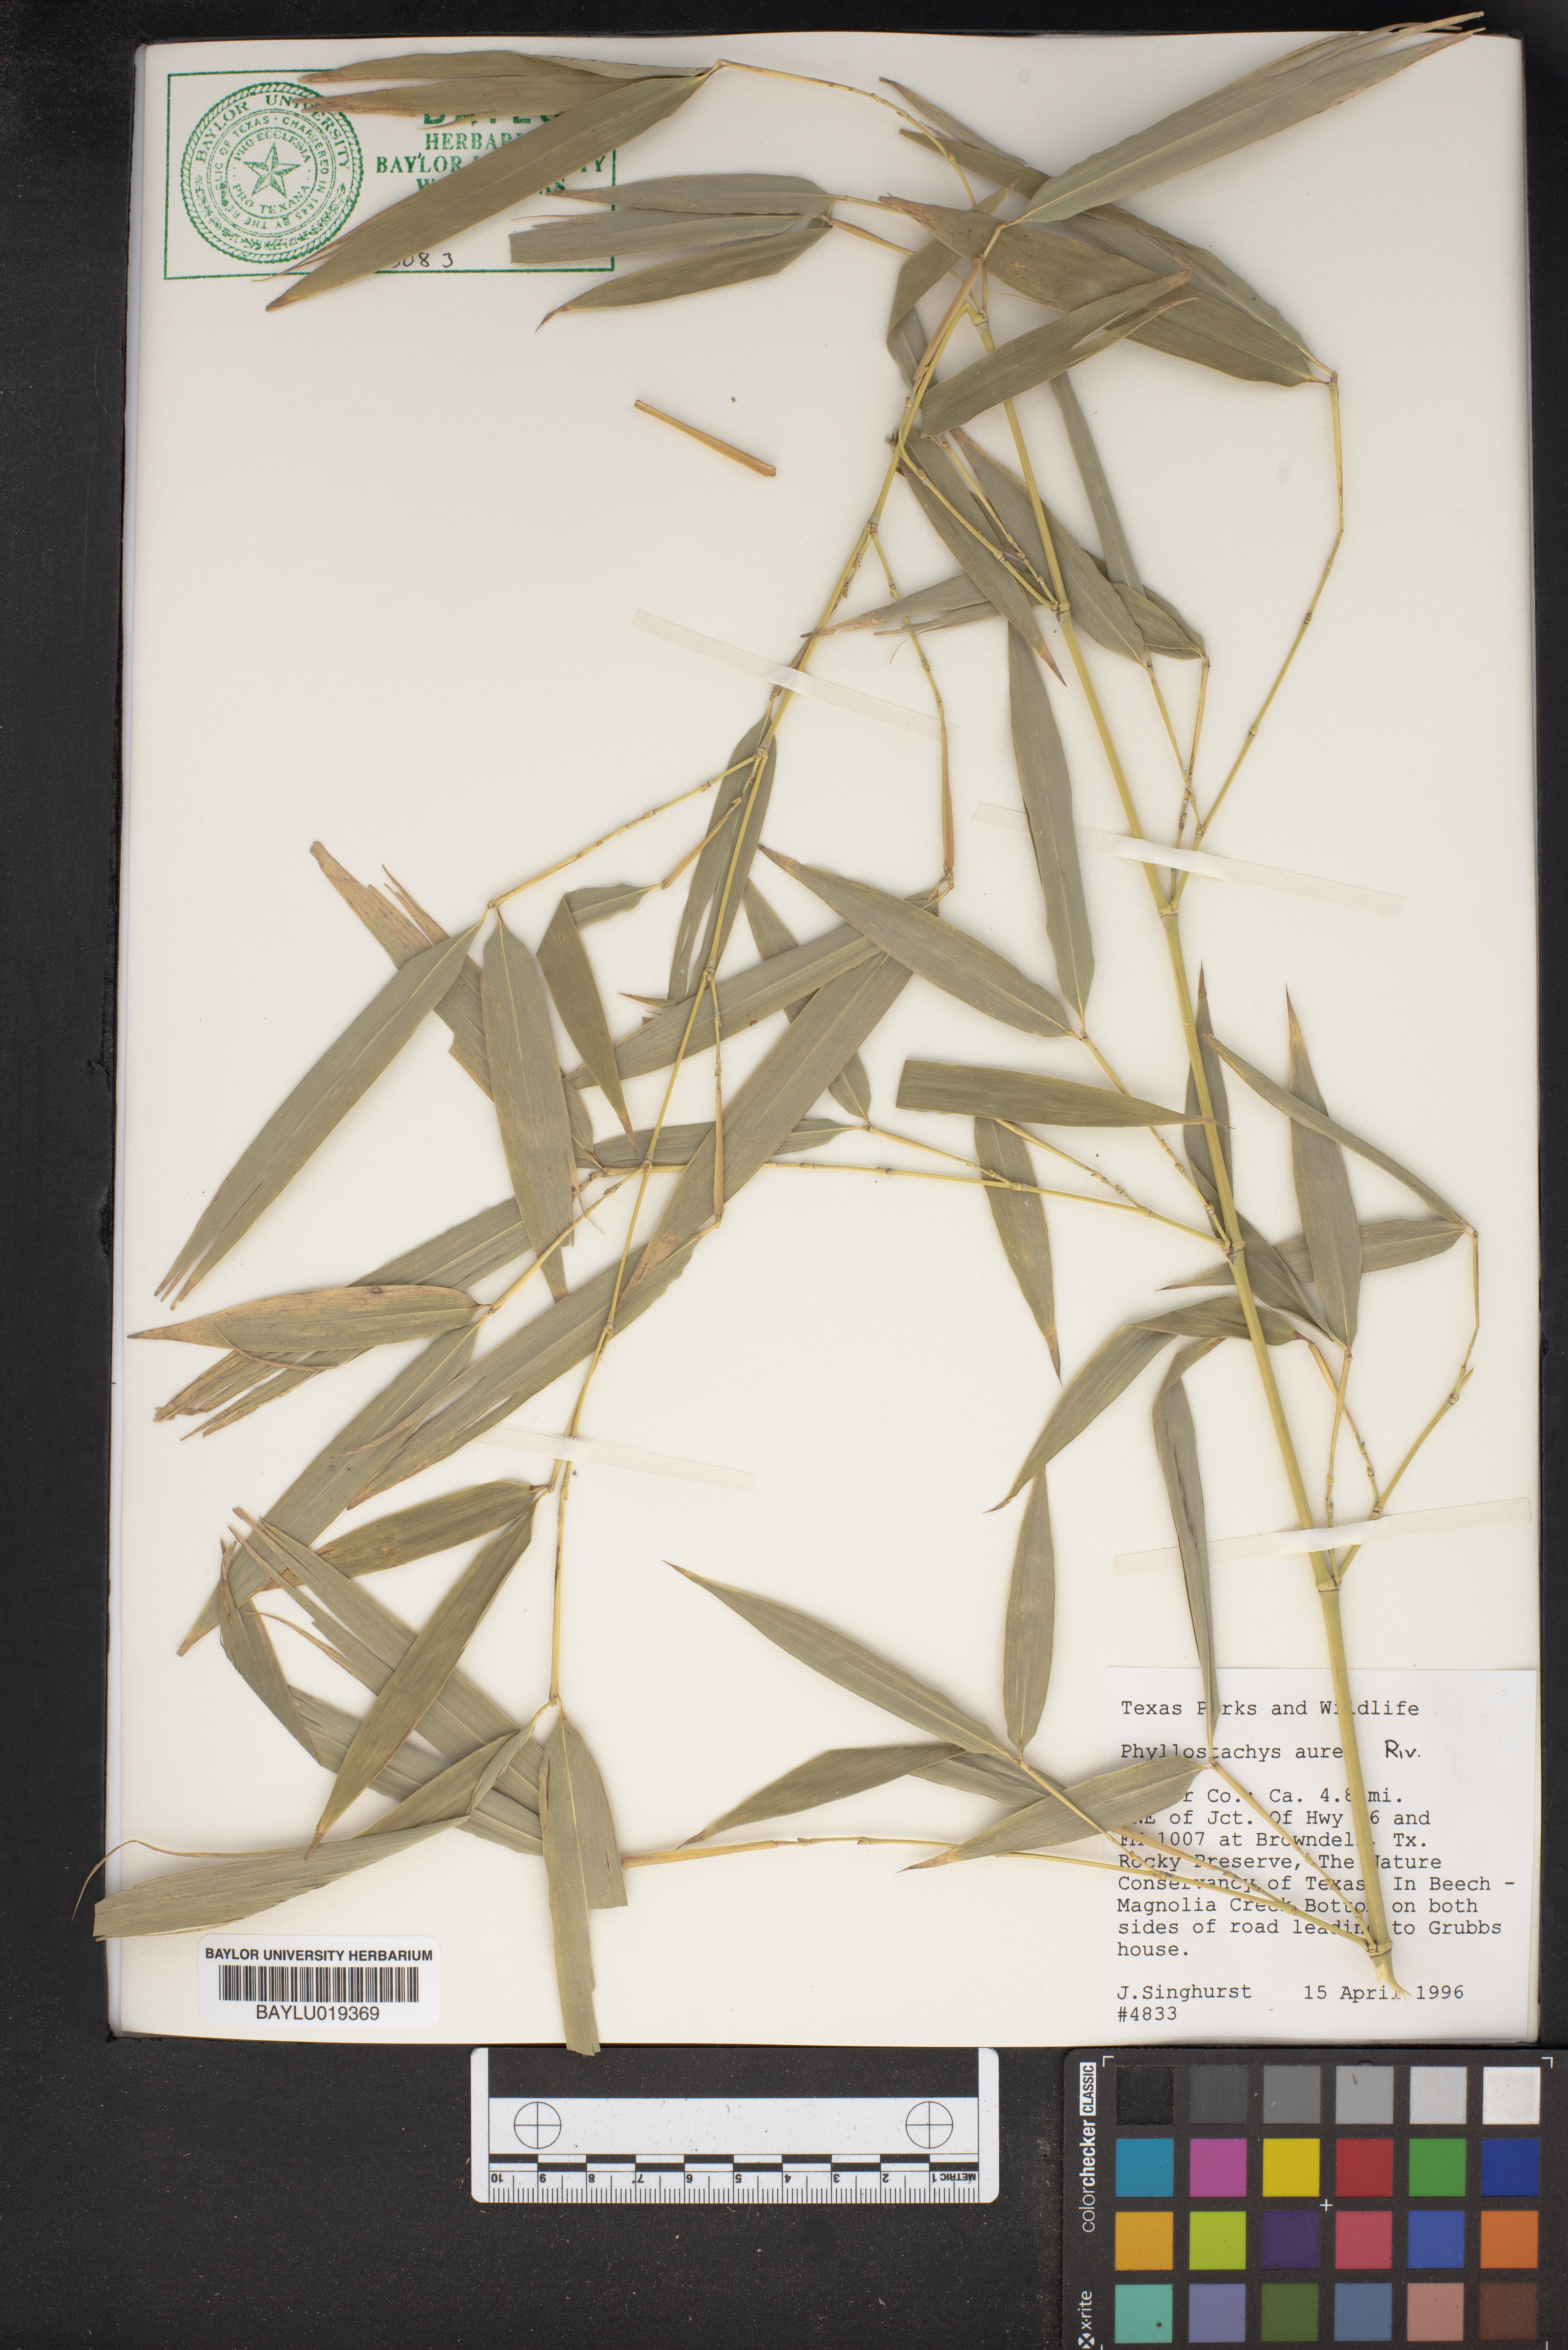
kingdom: Plantae
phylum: Tracheophyta
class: Liliopsida
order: Poales
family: Poaceae
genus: Phyllostachys
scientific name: Phyllostachys aurea
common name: Golden bamboo
